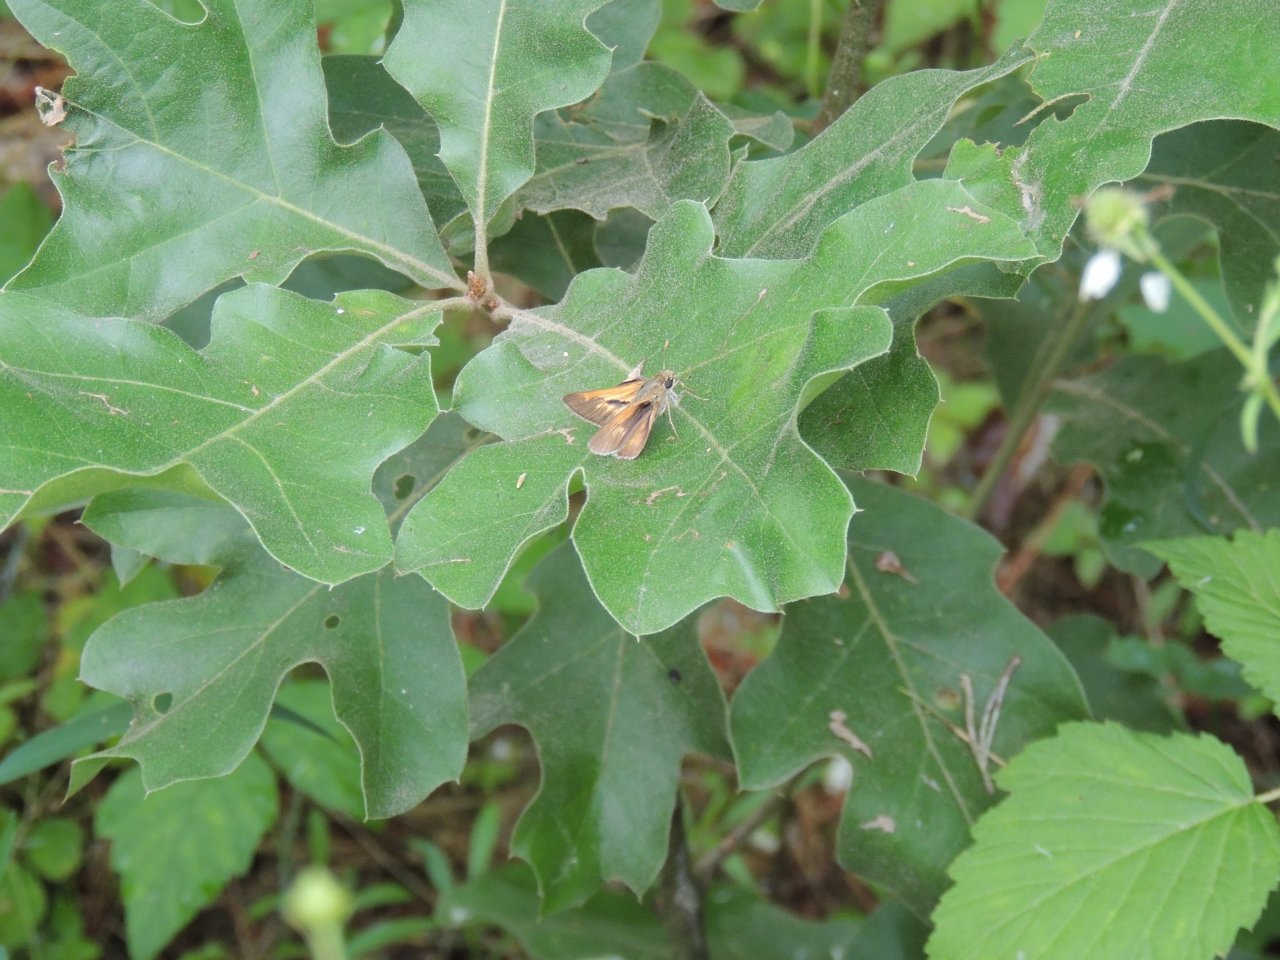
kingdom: Animalia
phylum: Arthropoda
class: Insecta
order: Lepidoptera
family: Hesperiidae
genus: Polites
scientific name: Polites
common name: Crossline Skipper
